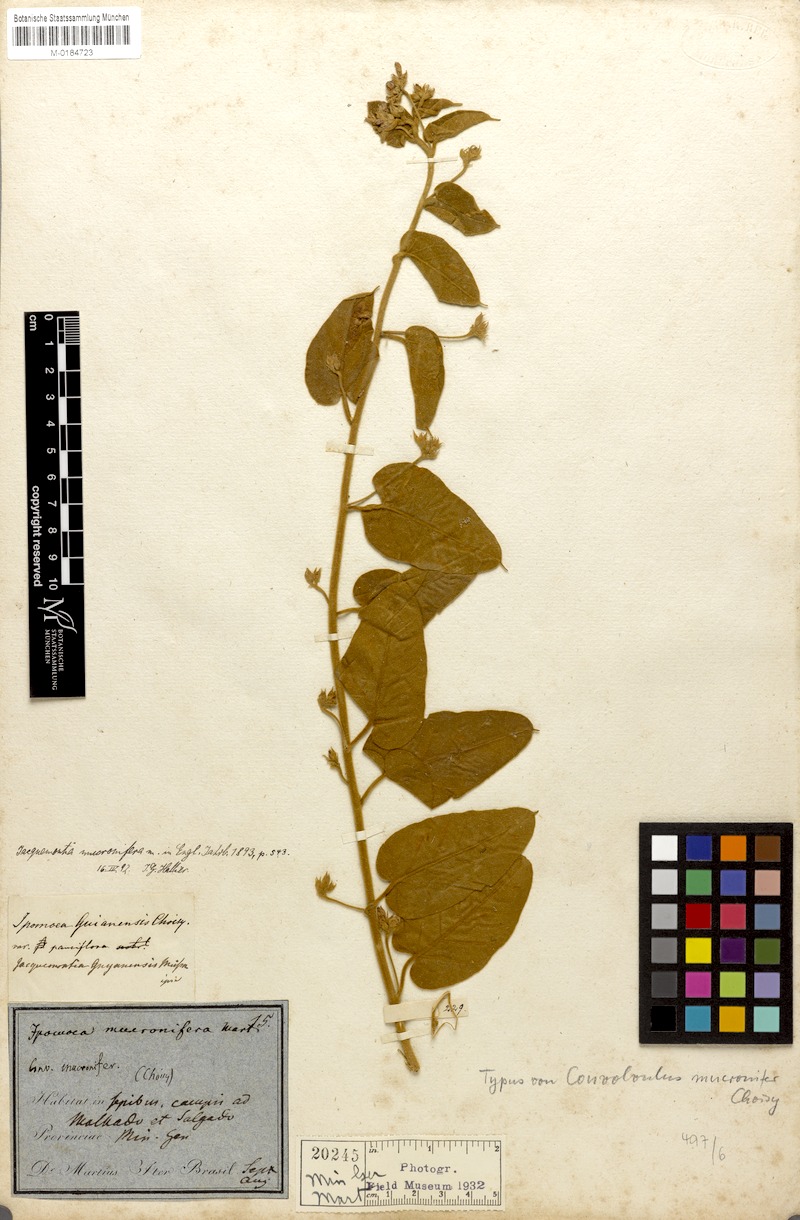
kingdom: Plantae
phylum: Tracheophyta
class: Magnoliopsida
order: Solanales
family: Convolvulaceae
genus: Jacquemontia
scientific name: Jacquemontia guyanensis
